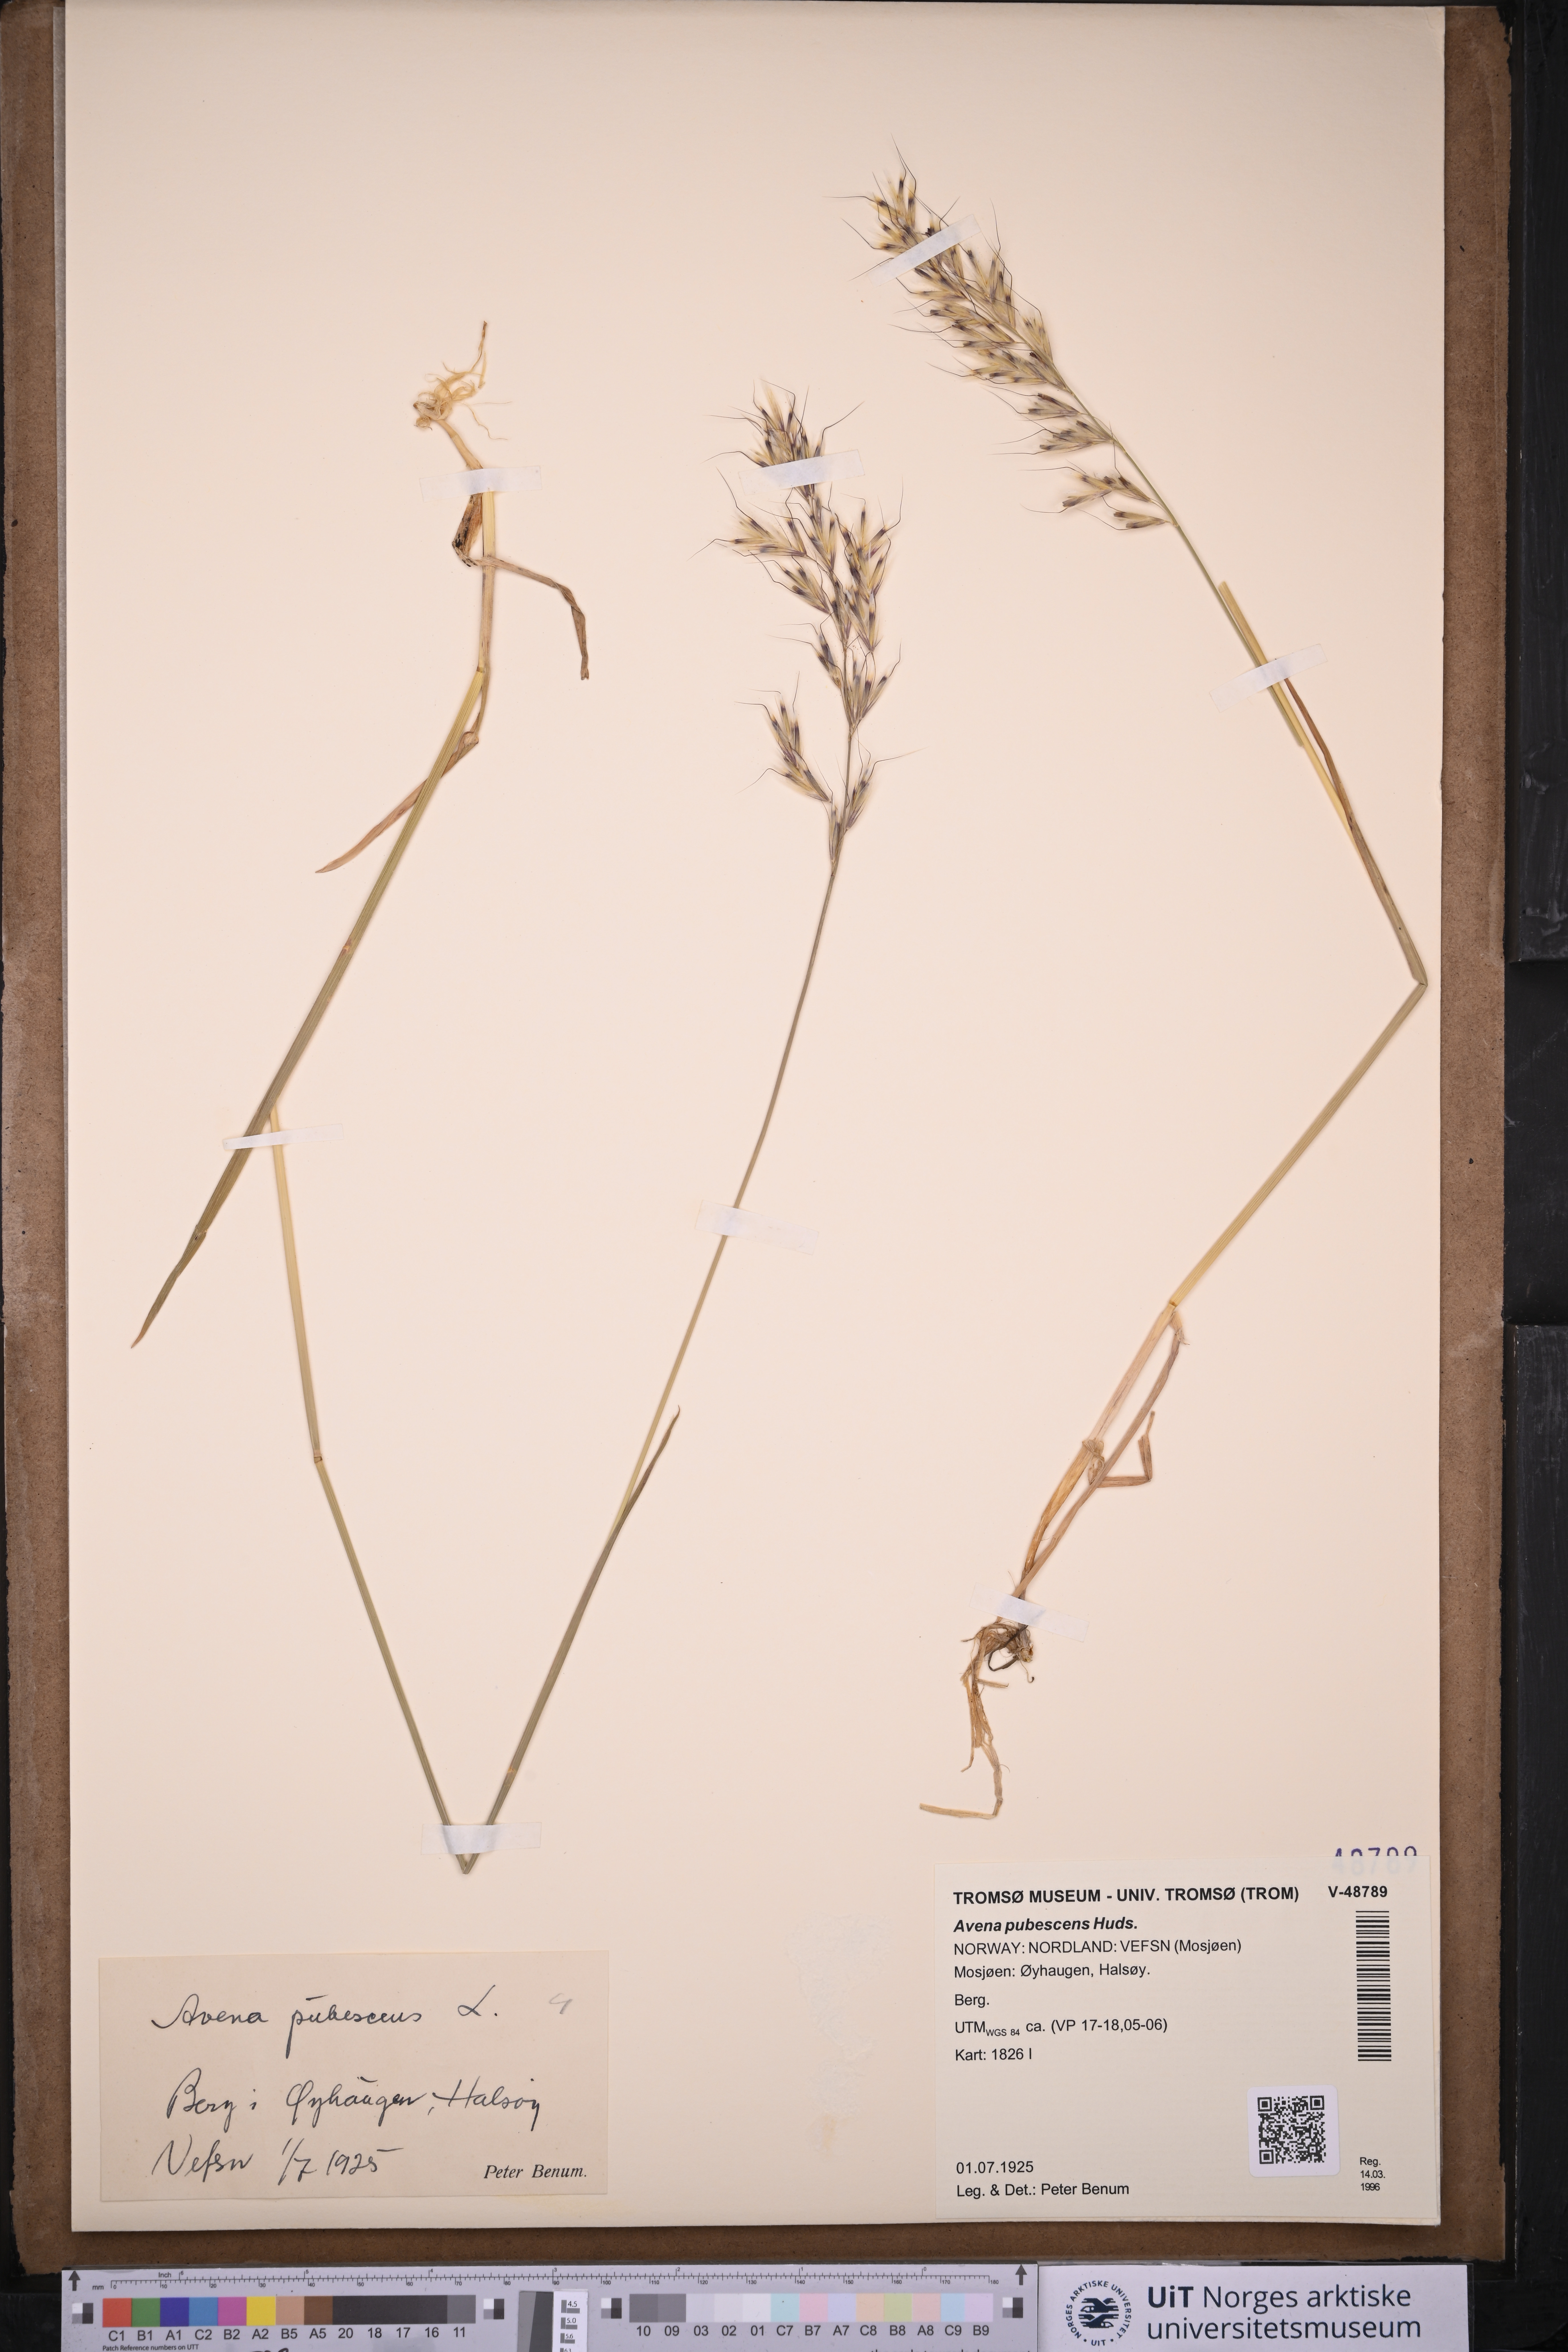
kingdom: Plantae
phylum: Tracheophyta
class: Liliopsida
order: Poales
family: Poaceae
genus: Avenula
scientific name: Avenula pubescens
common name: Downy alpine oatgrass
